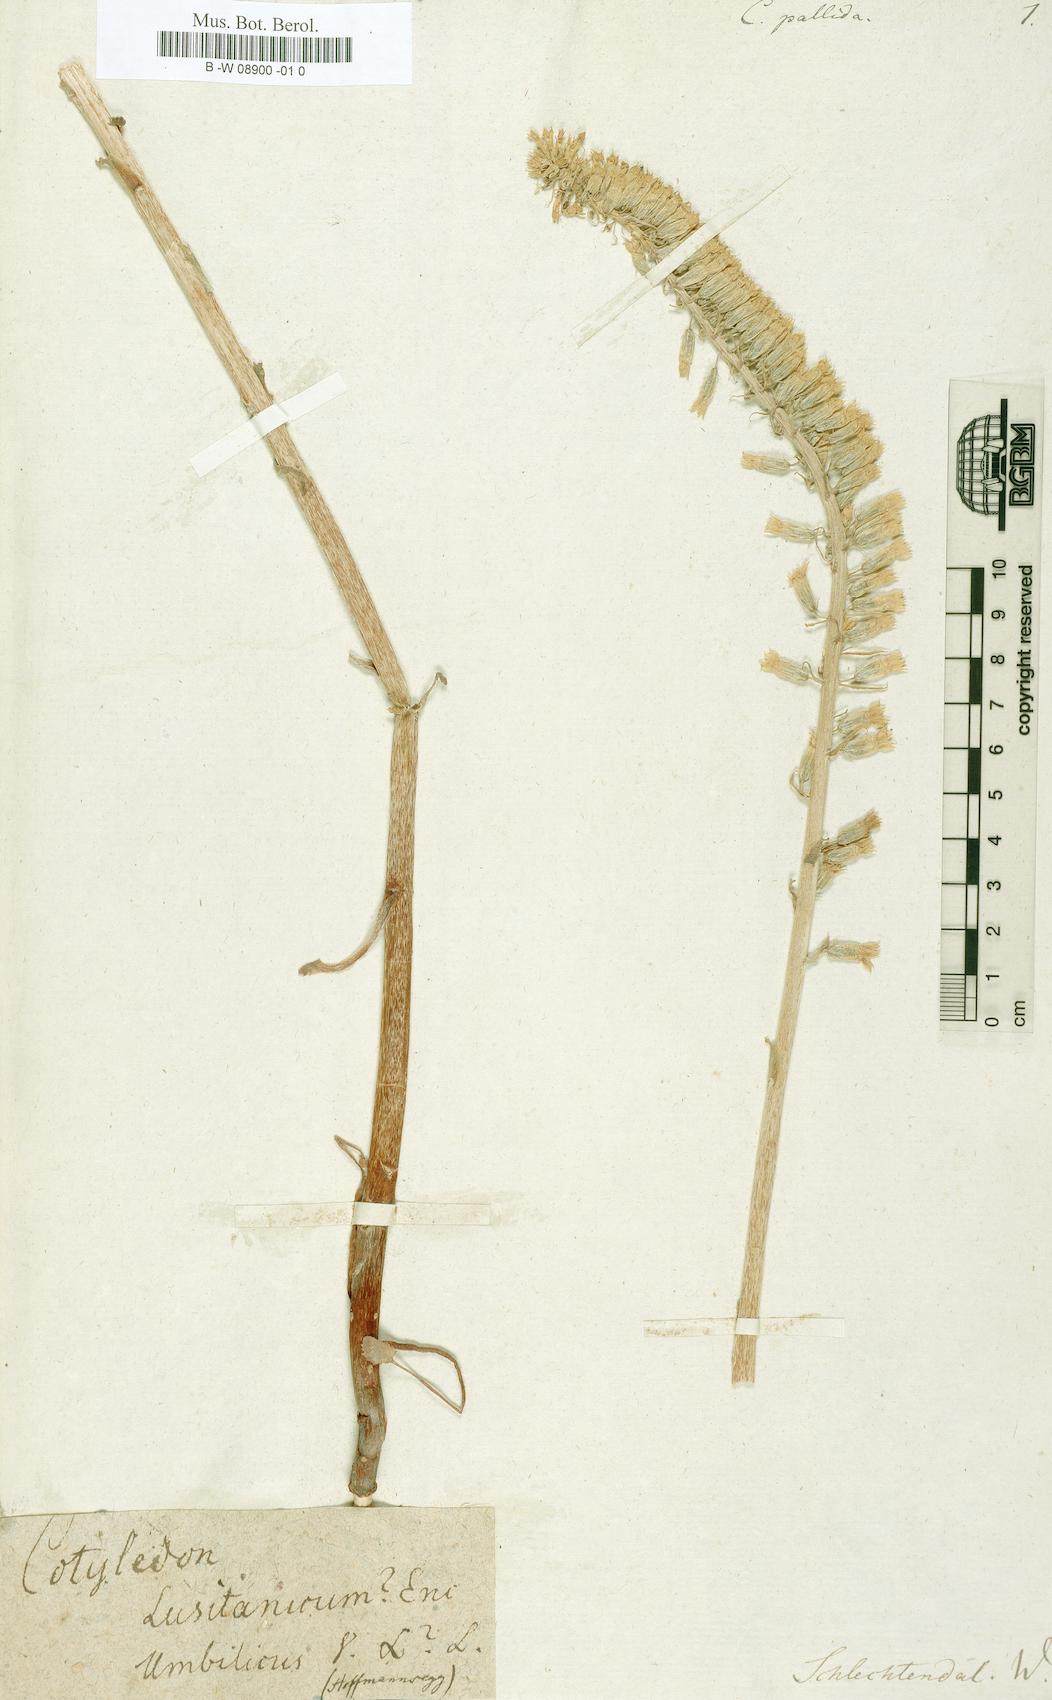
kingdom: Plantae
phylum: Tracheophyta
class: Magnoliopsida
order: Saxifragales
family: Crassulaceae
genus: Cotyledon
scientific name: Cotyledon
